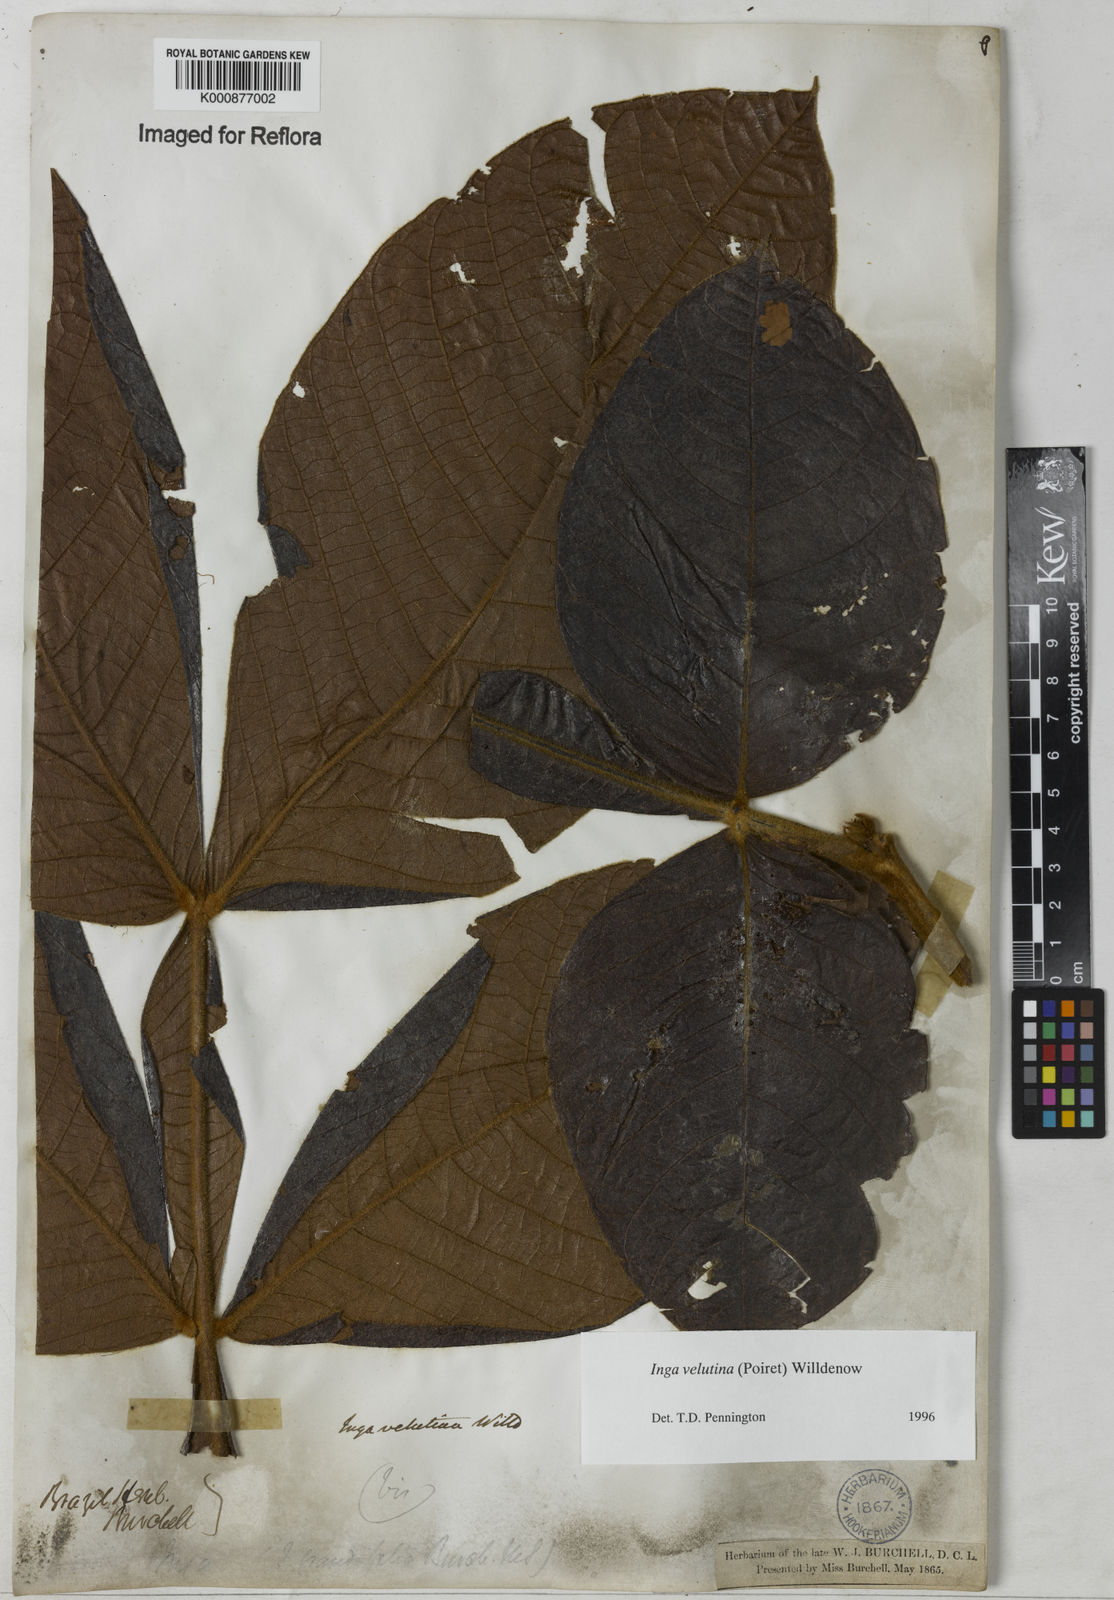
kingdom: Plantae
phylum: Tracheophyta
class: Magnoliopsida
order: Fabales
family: Fabaceae
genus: Inga
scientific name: Inga velutina
